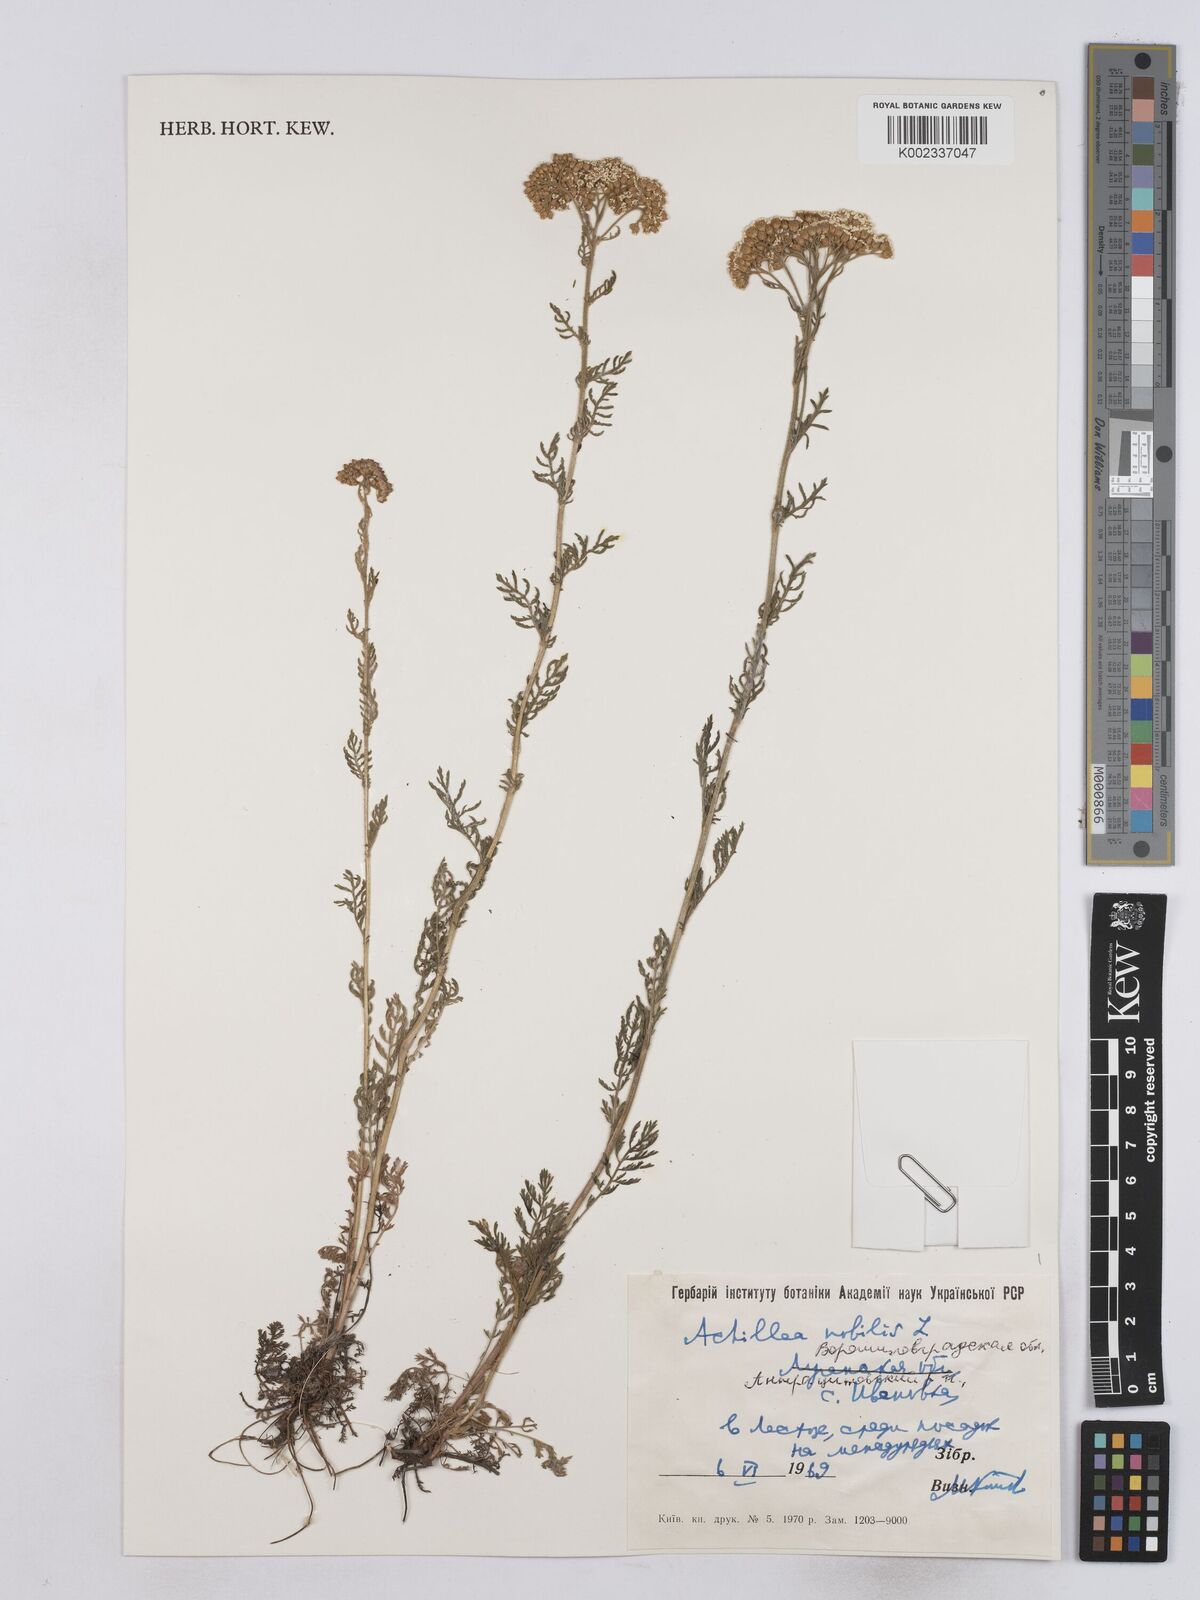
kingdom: Plantae
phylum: Tracheophyta
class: Magnoliopsida
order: Asterales
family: Asteraceae
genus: Achillea
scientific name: Achillea nobilis
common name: Noble yarrow
